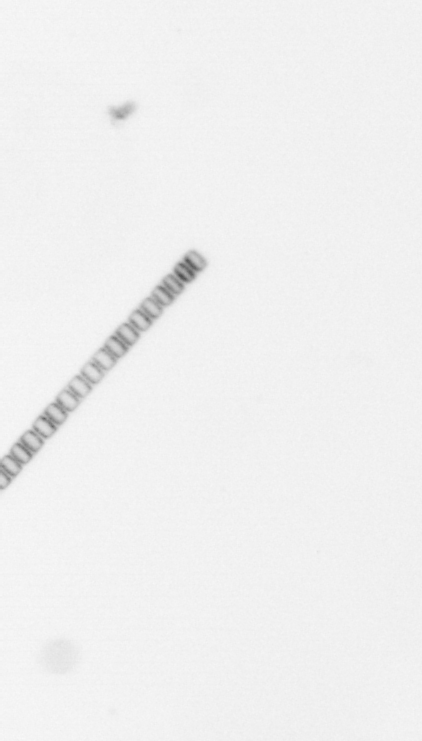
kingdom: Chromista
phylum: Ochrophyta
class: Bacillariophyceae
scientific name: Bacillariophyceae
